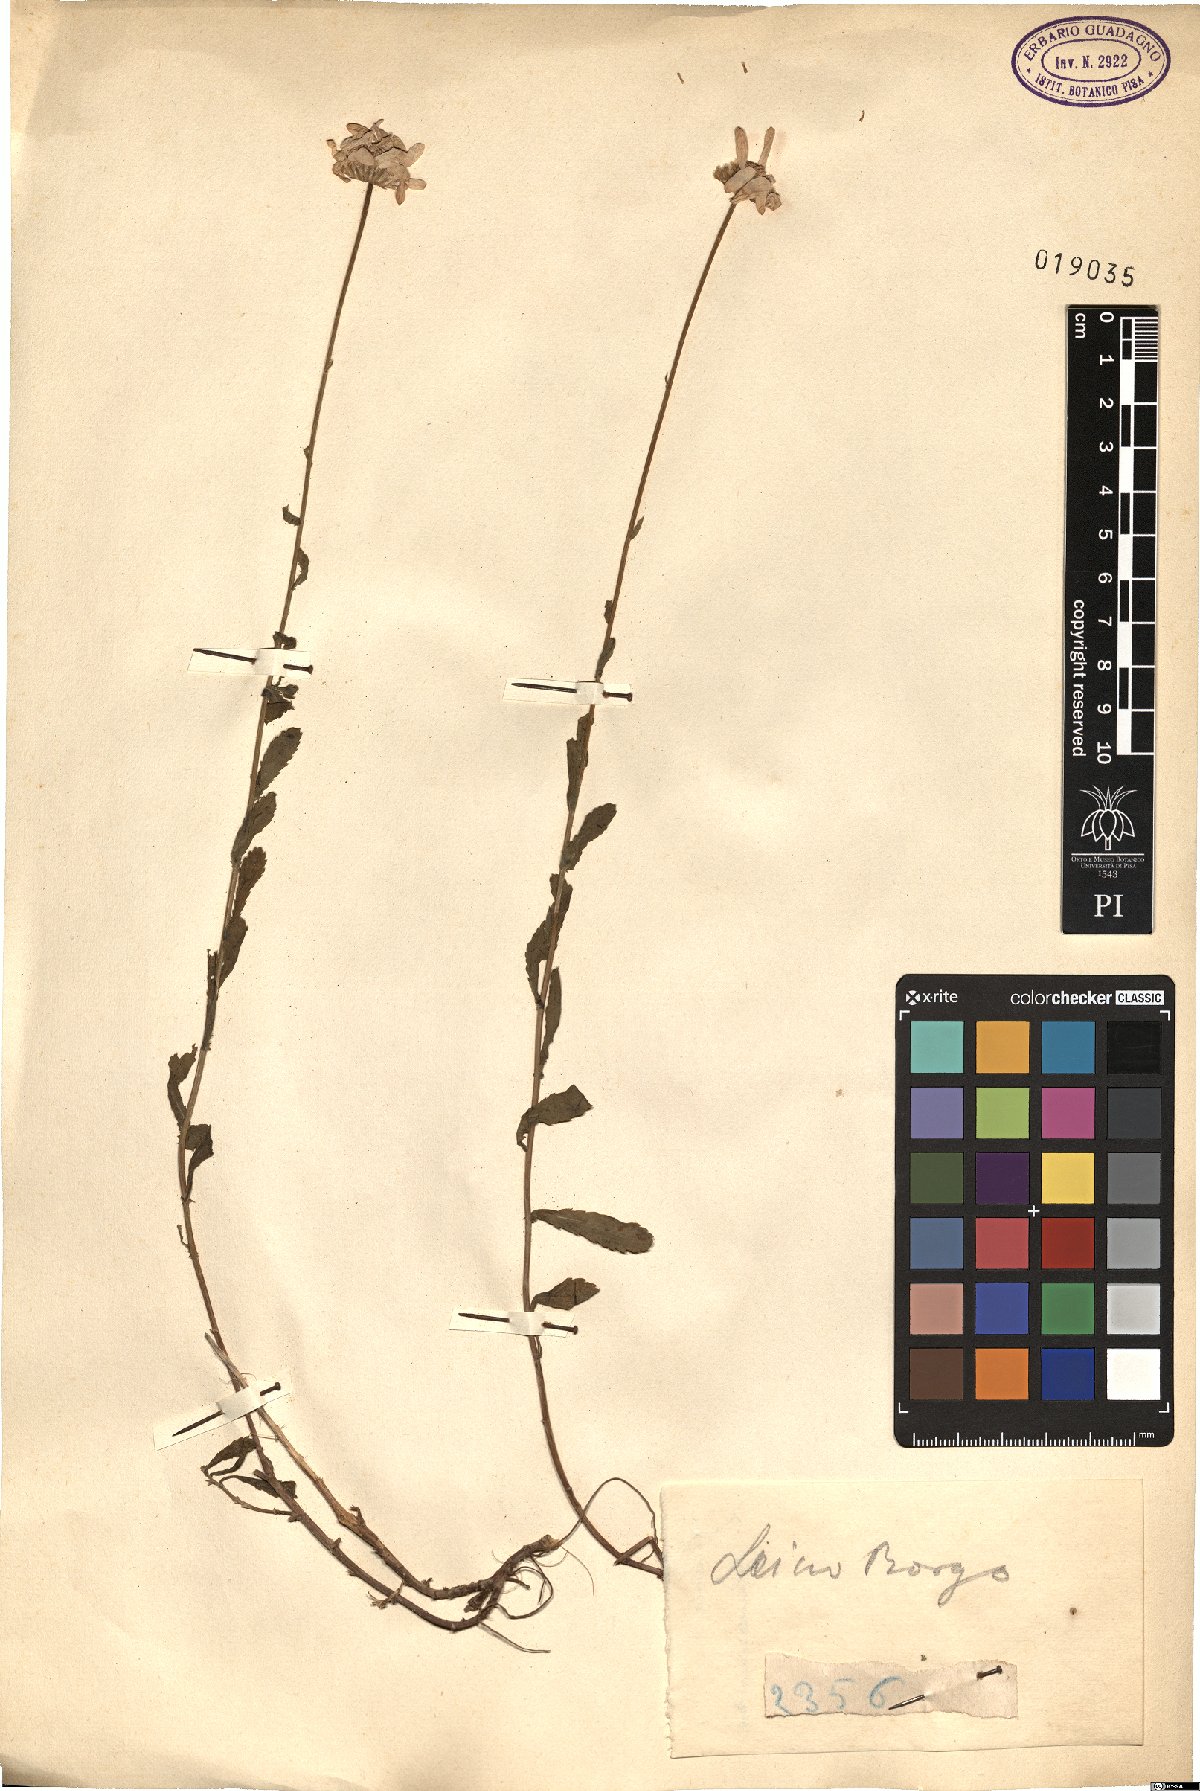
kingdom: Plantae
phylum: Tracheophyta
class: Magnoliopsida
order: Asterales
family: Asteraceae
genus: Pyrethrum
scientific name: Pyrethrum
